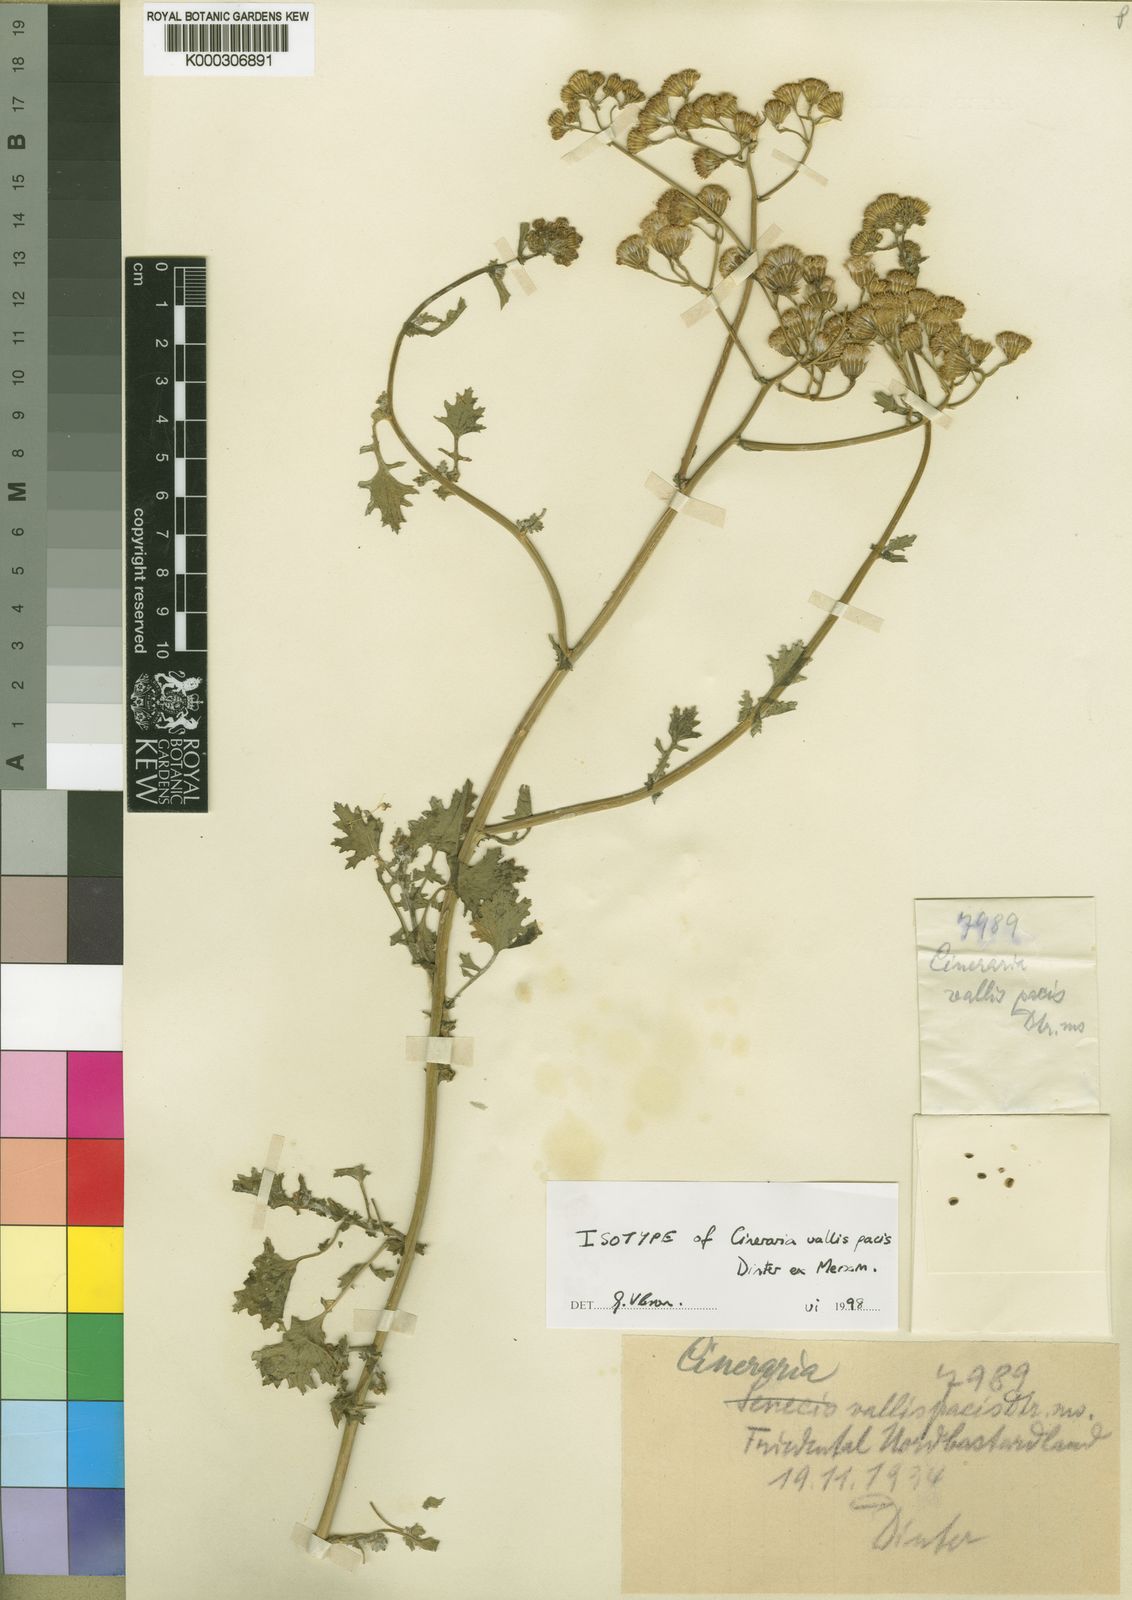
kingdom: Plantae
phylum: Tracheophyta
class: Magnoliopsida
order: Asterales
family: Asteraceae
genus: Cineraria
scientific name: Cineraria vallis-pacis
